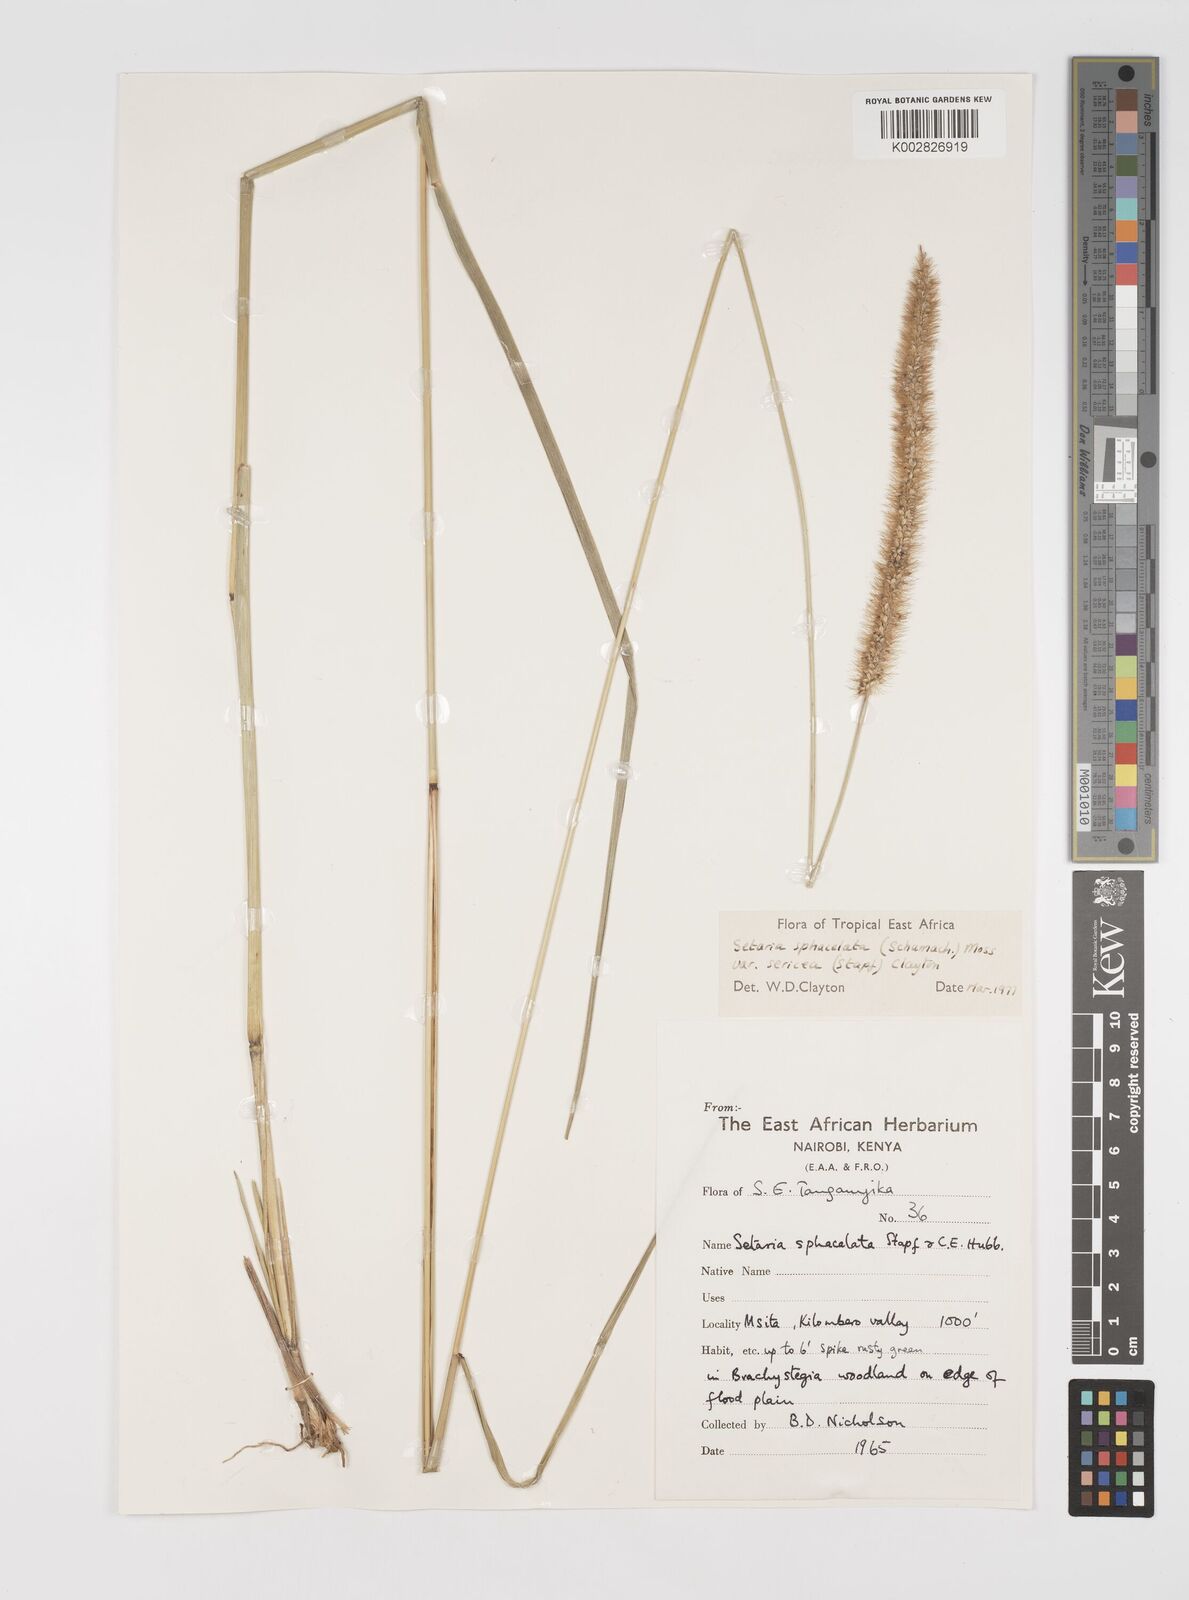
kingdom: Plantae
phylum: Tracheophyta
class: Liliopsida
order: Poales
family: Poaceae
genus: Setaria
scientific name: Setaria sphacelata
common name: African bristlegrass
